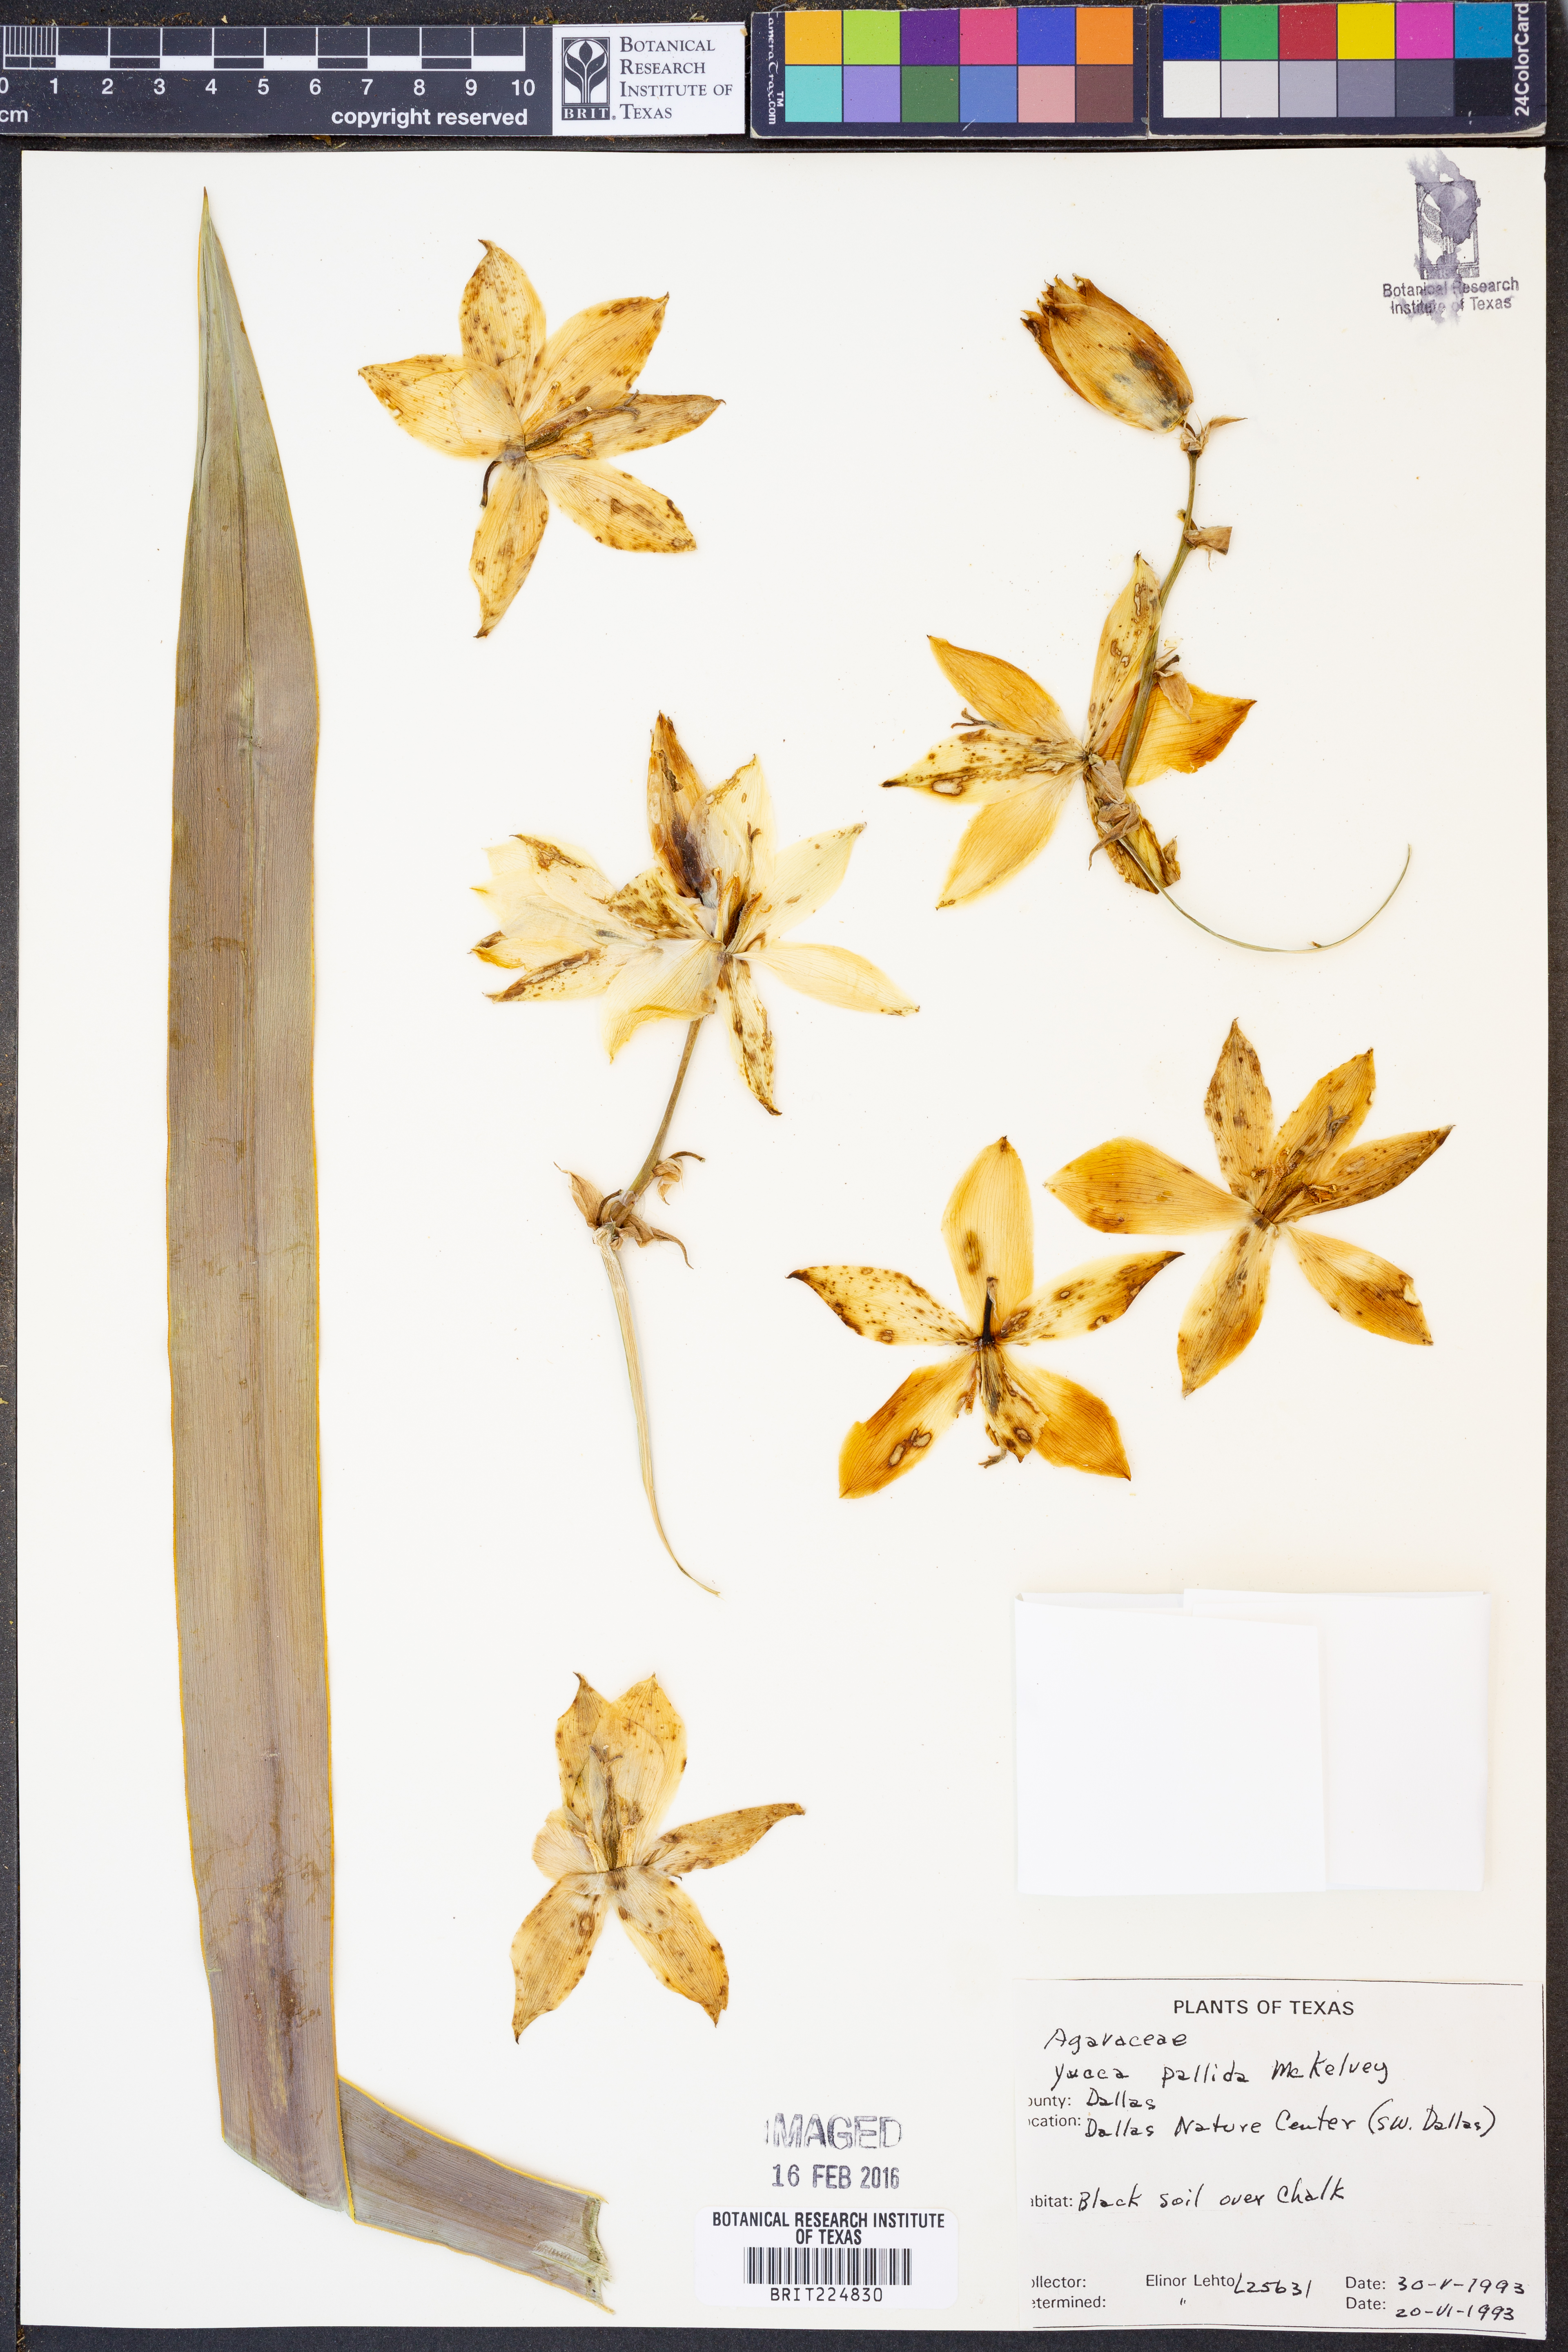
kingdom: Plantae
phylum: Tracheophyta
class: Liliopsida
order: Asparagales
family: Asparagaceae
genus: Yucca
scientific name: Yucca pallida
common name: Pale leaf yucca
